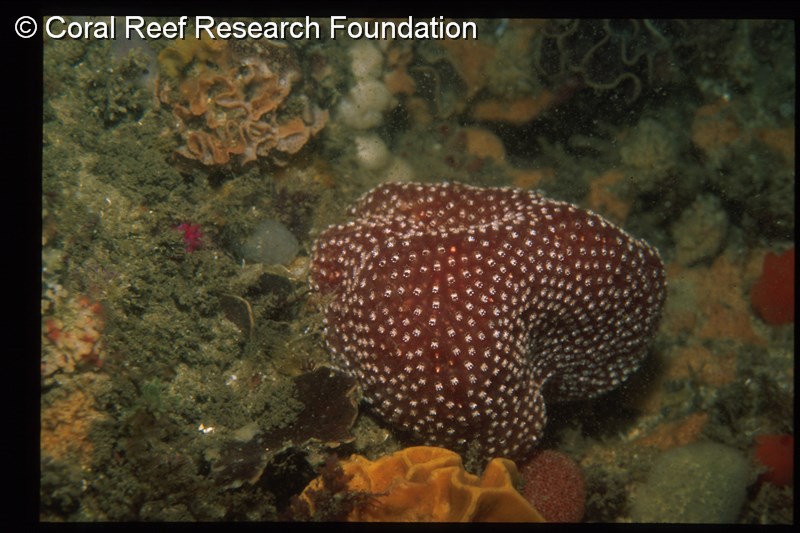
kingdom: Animalia
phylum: Chordata
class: Ascidiacea
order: Aplousobranchia
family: Polycitoridae
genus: Eudistoma
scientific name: Eudistoma
